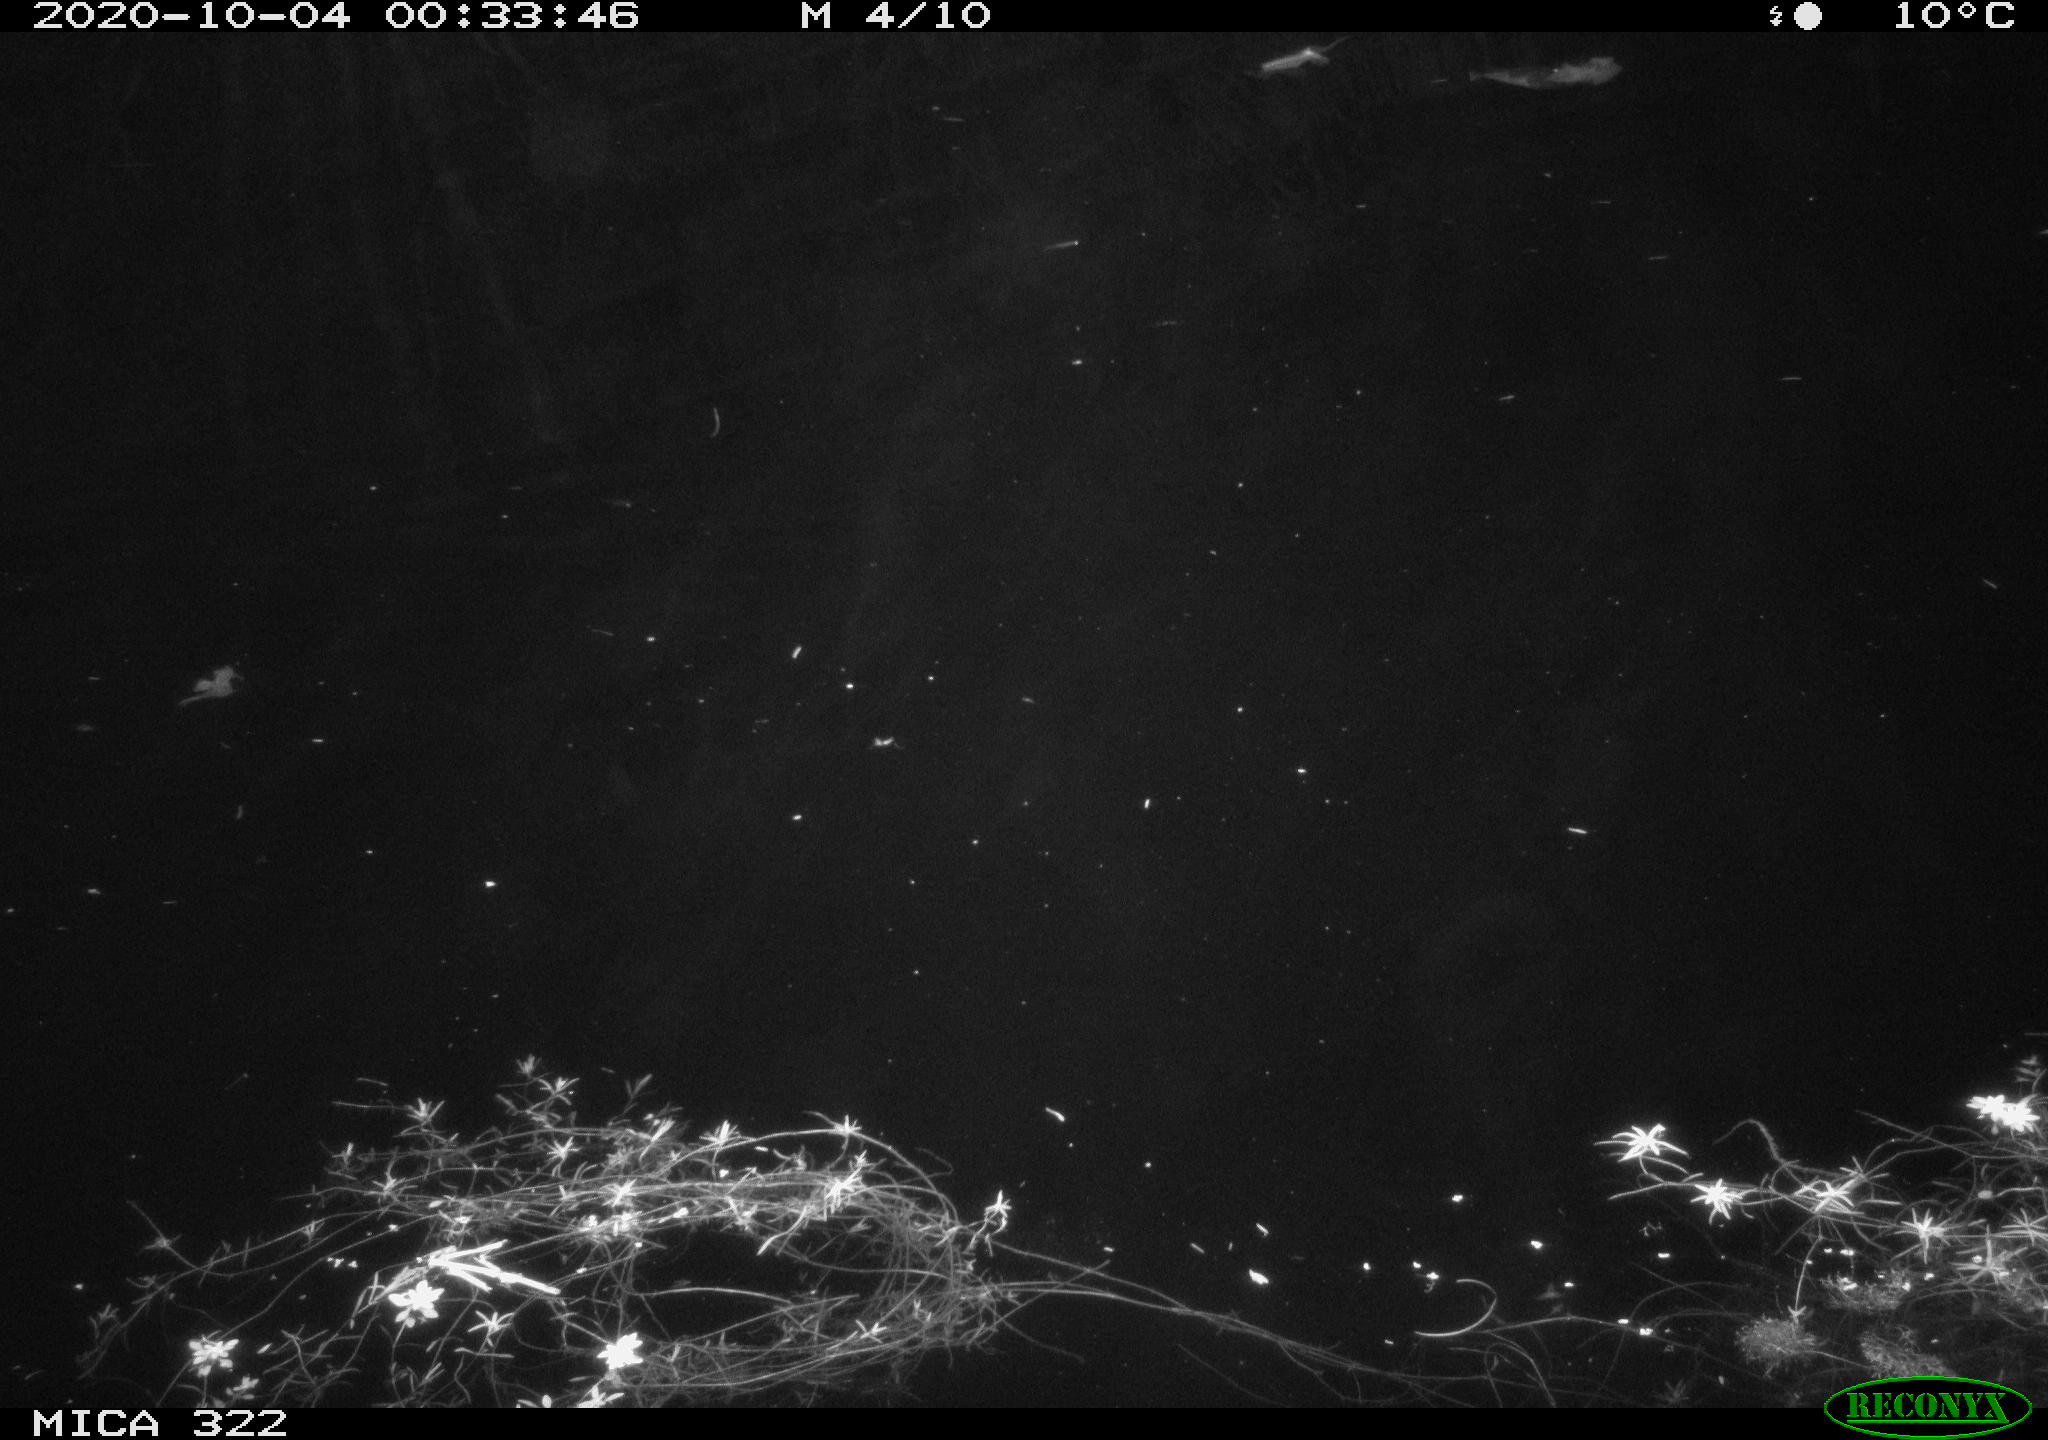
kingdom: Animalia
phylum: Chordata
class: Mammalia
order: Rodentia
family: Muridae
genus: Rattus
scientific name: Rattus norvegicus
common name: Brown rat
